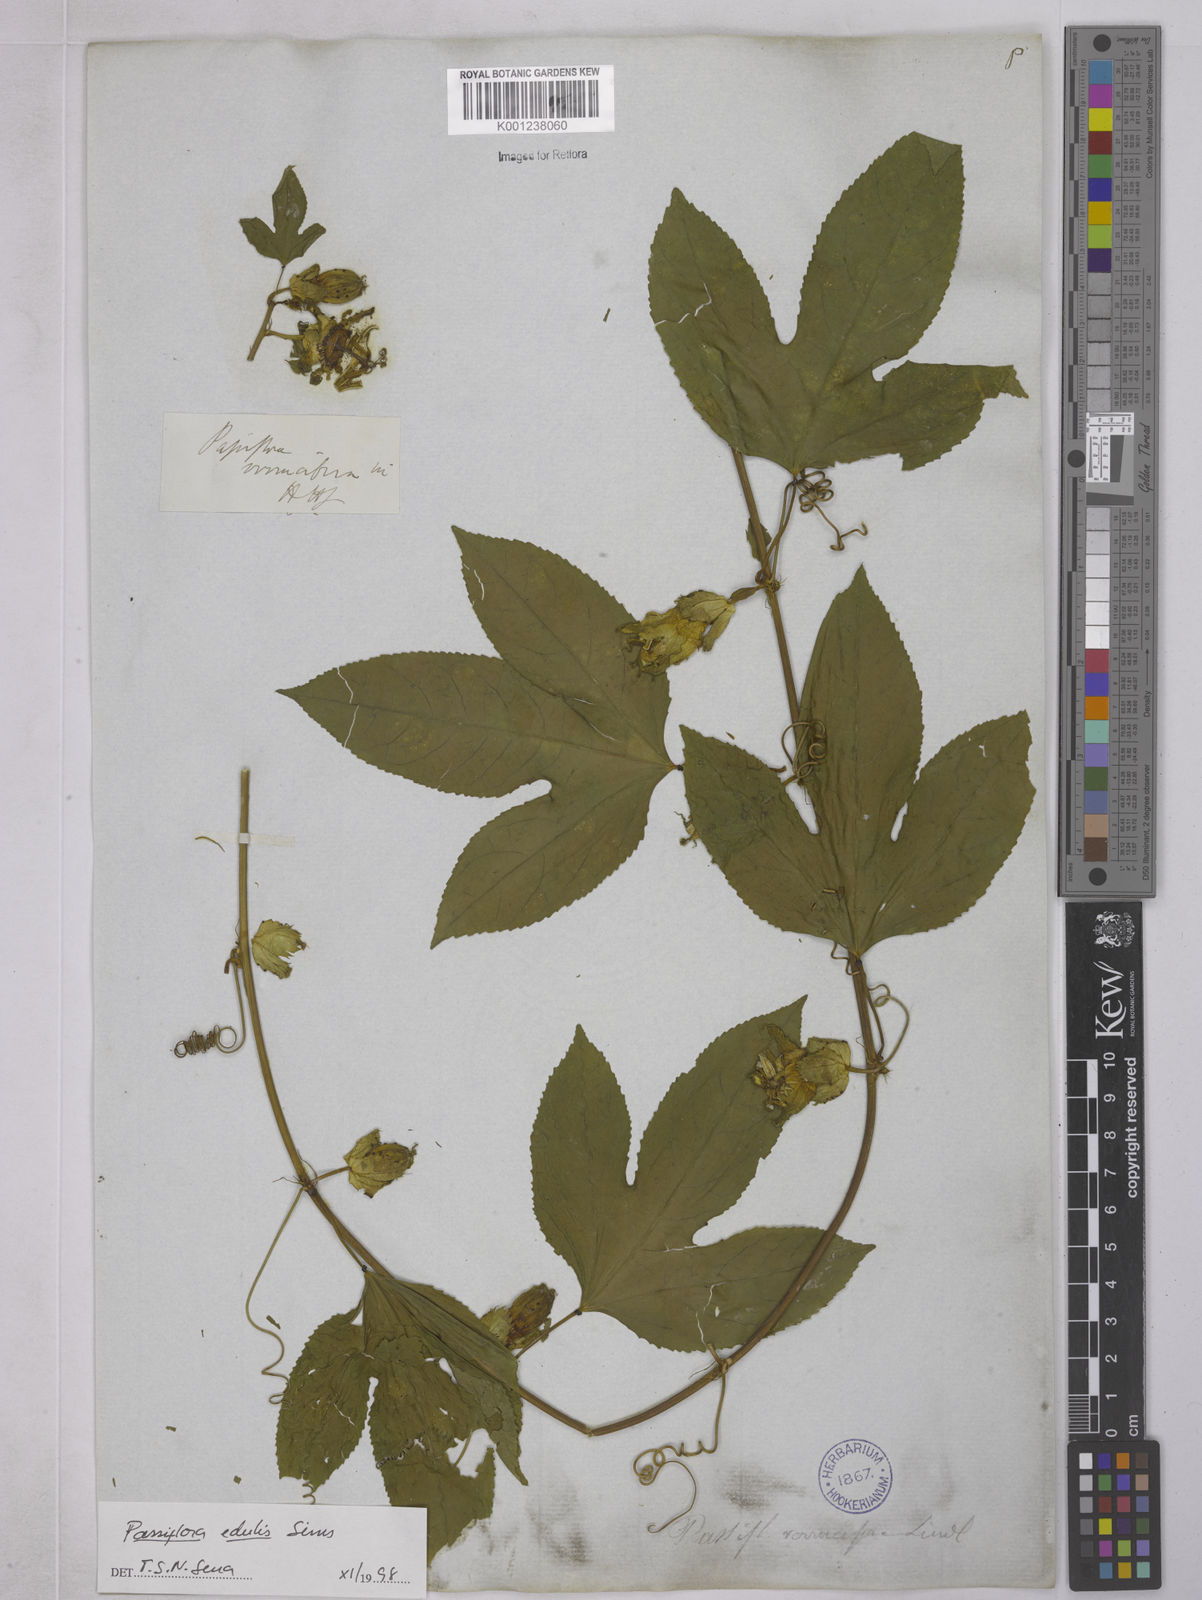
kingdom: Plantae
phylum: Tracheophyta
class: Magnoliopsida
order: Malpighiales
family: Passifloraceae
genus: Passiflora
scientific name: Passiflora edulis
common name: Purple granadilla
